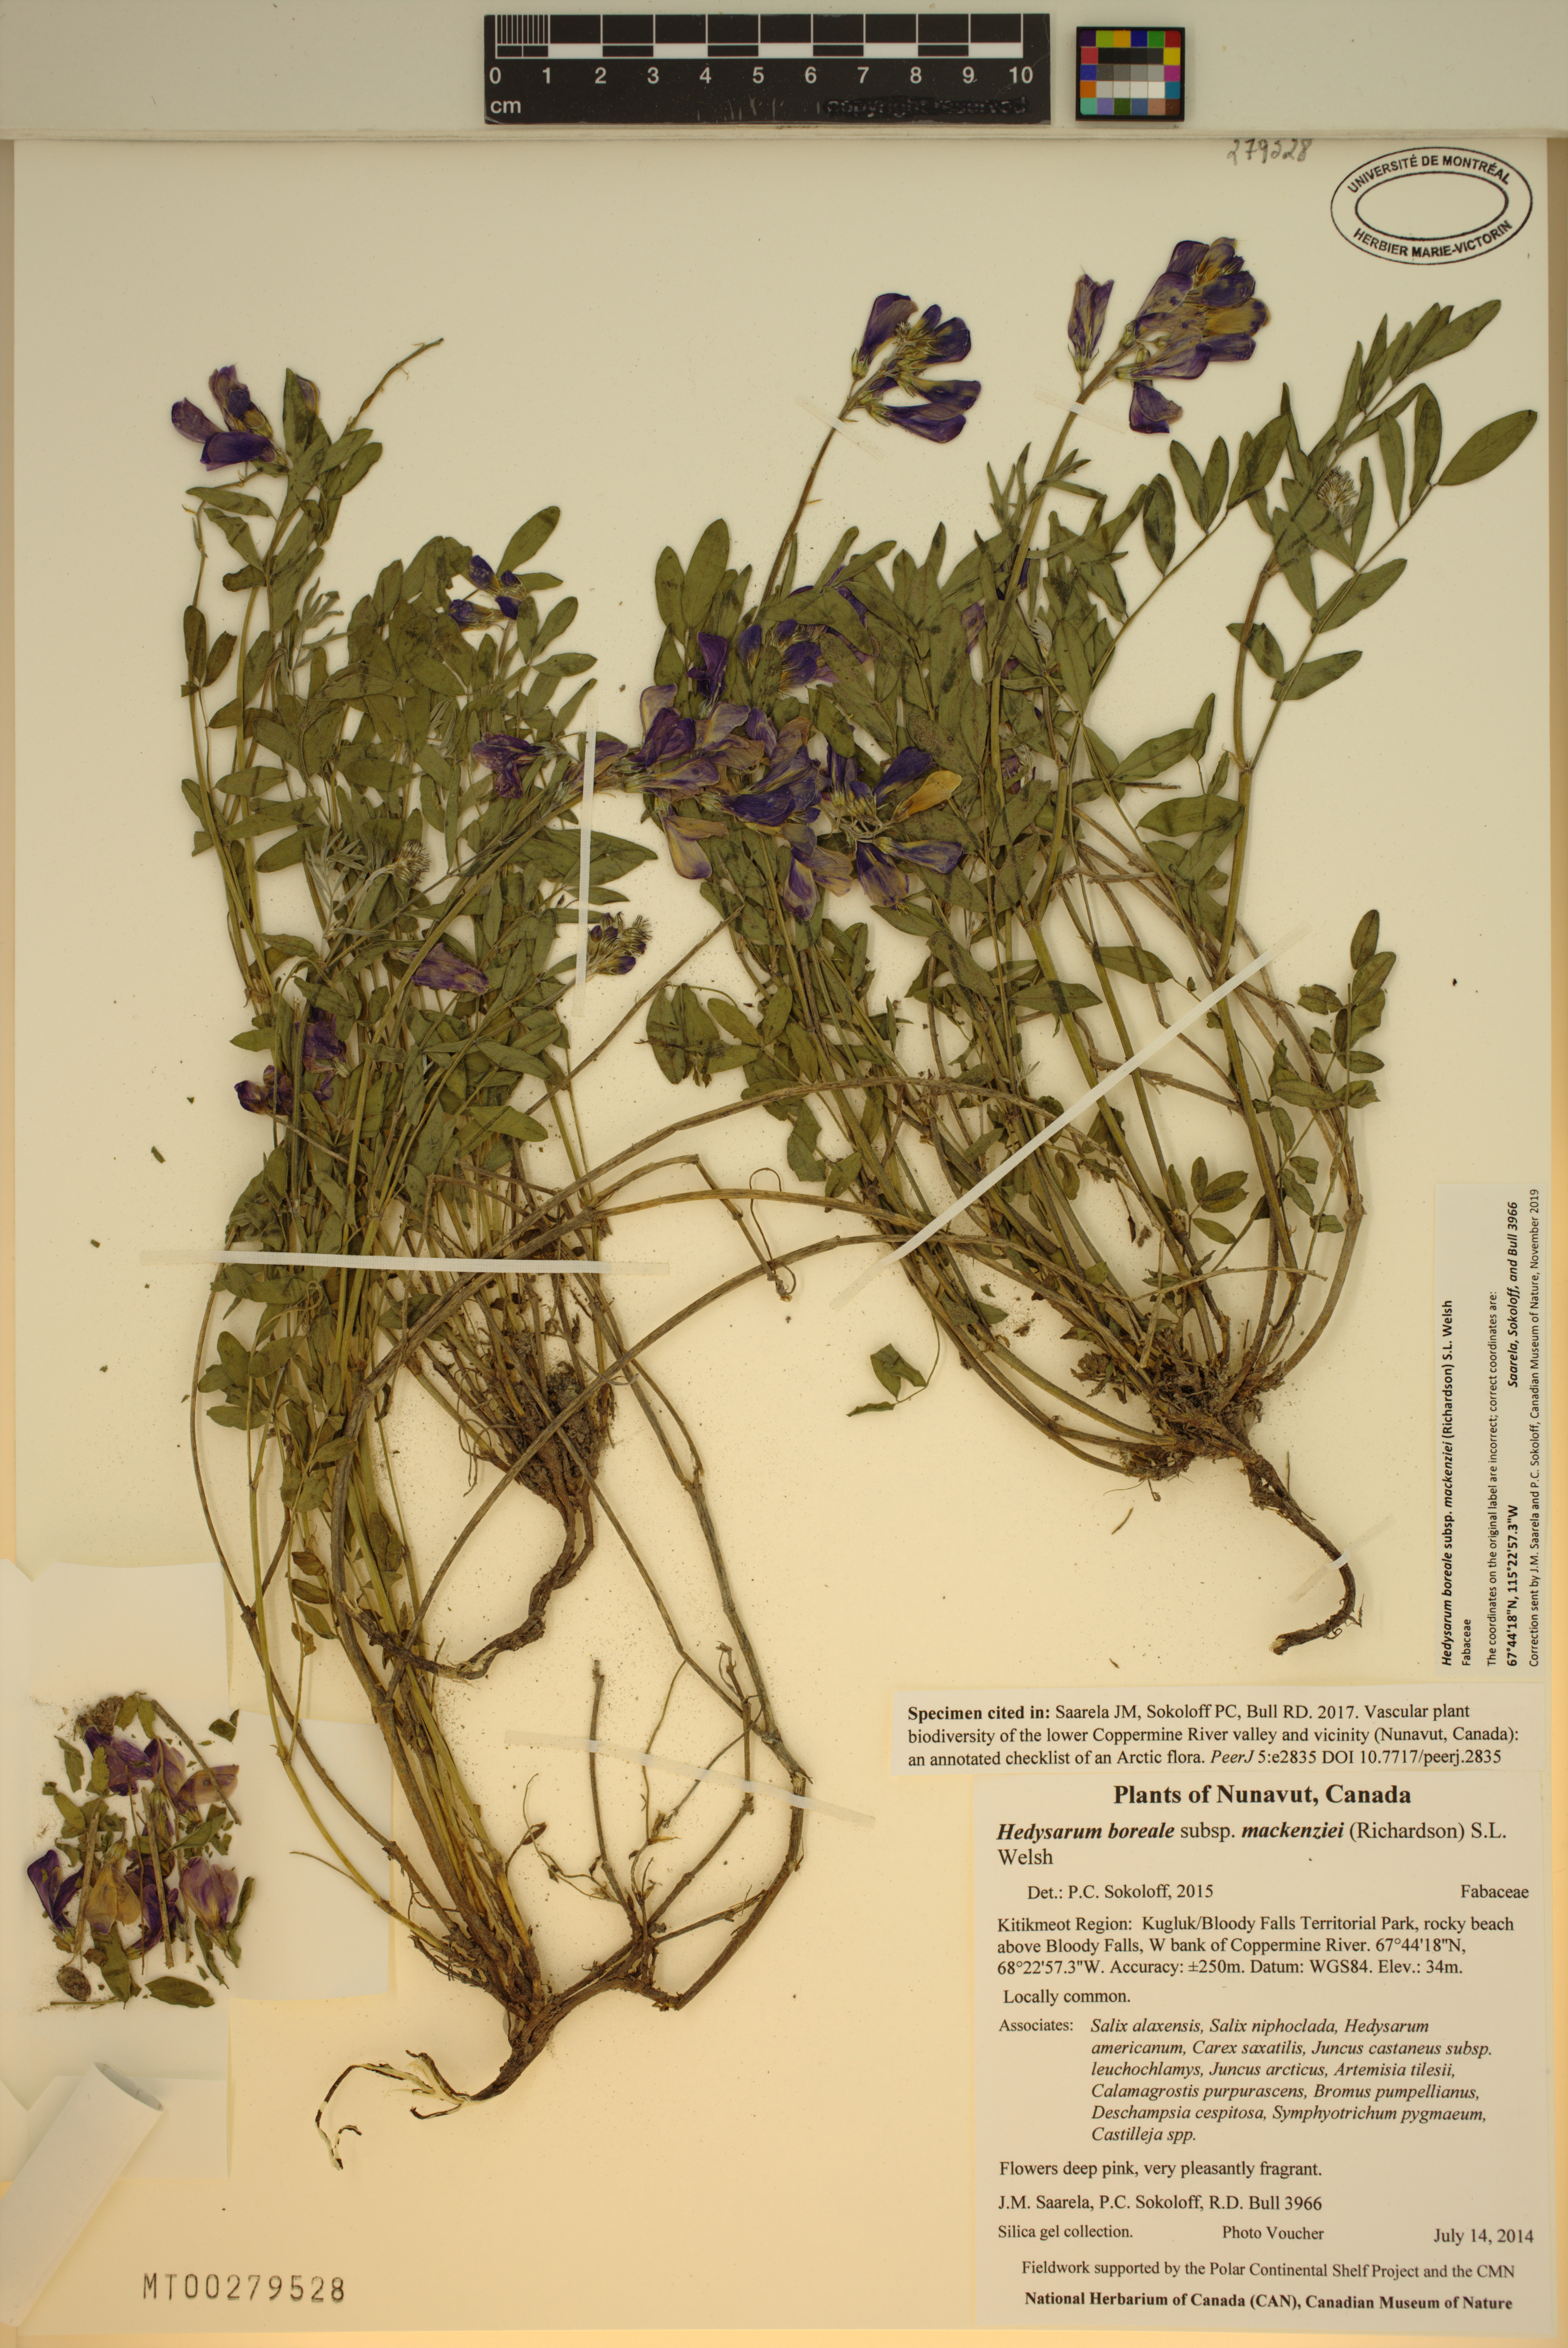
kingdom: Plantae
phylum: Tracheophyta
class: Magnoliopsida
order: Fabales
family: Fabaceae
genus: Hedysarum
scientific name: Hedysarum boreale
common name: Northern sweet-vetch
